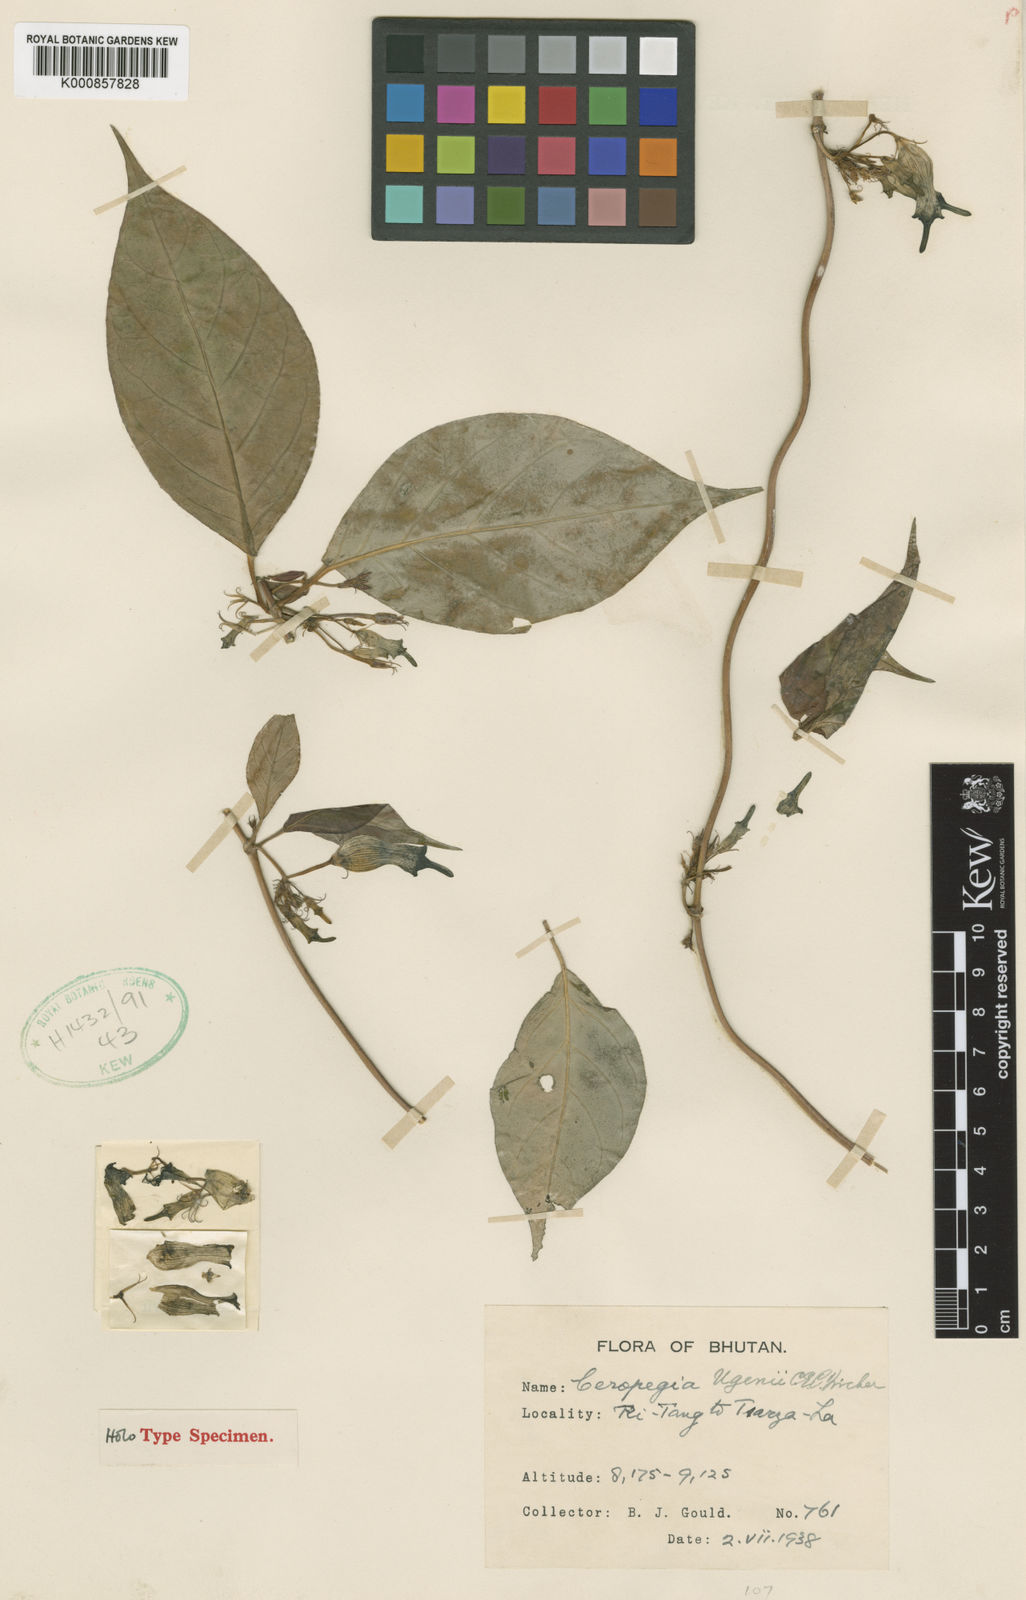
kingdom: Plantae
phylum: Tracheophyta
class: Magnoliopsida
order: Gentianales
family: Apocynaceae
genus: Ceropegia
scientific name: Ceropegia ugeni
